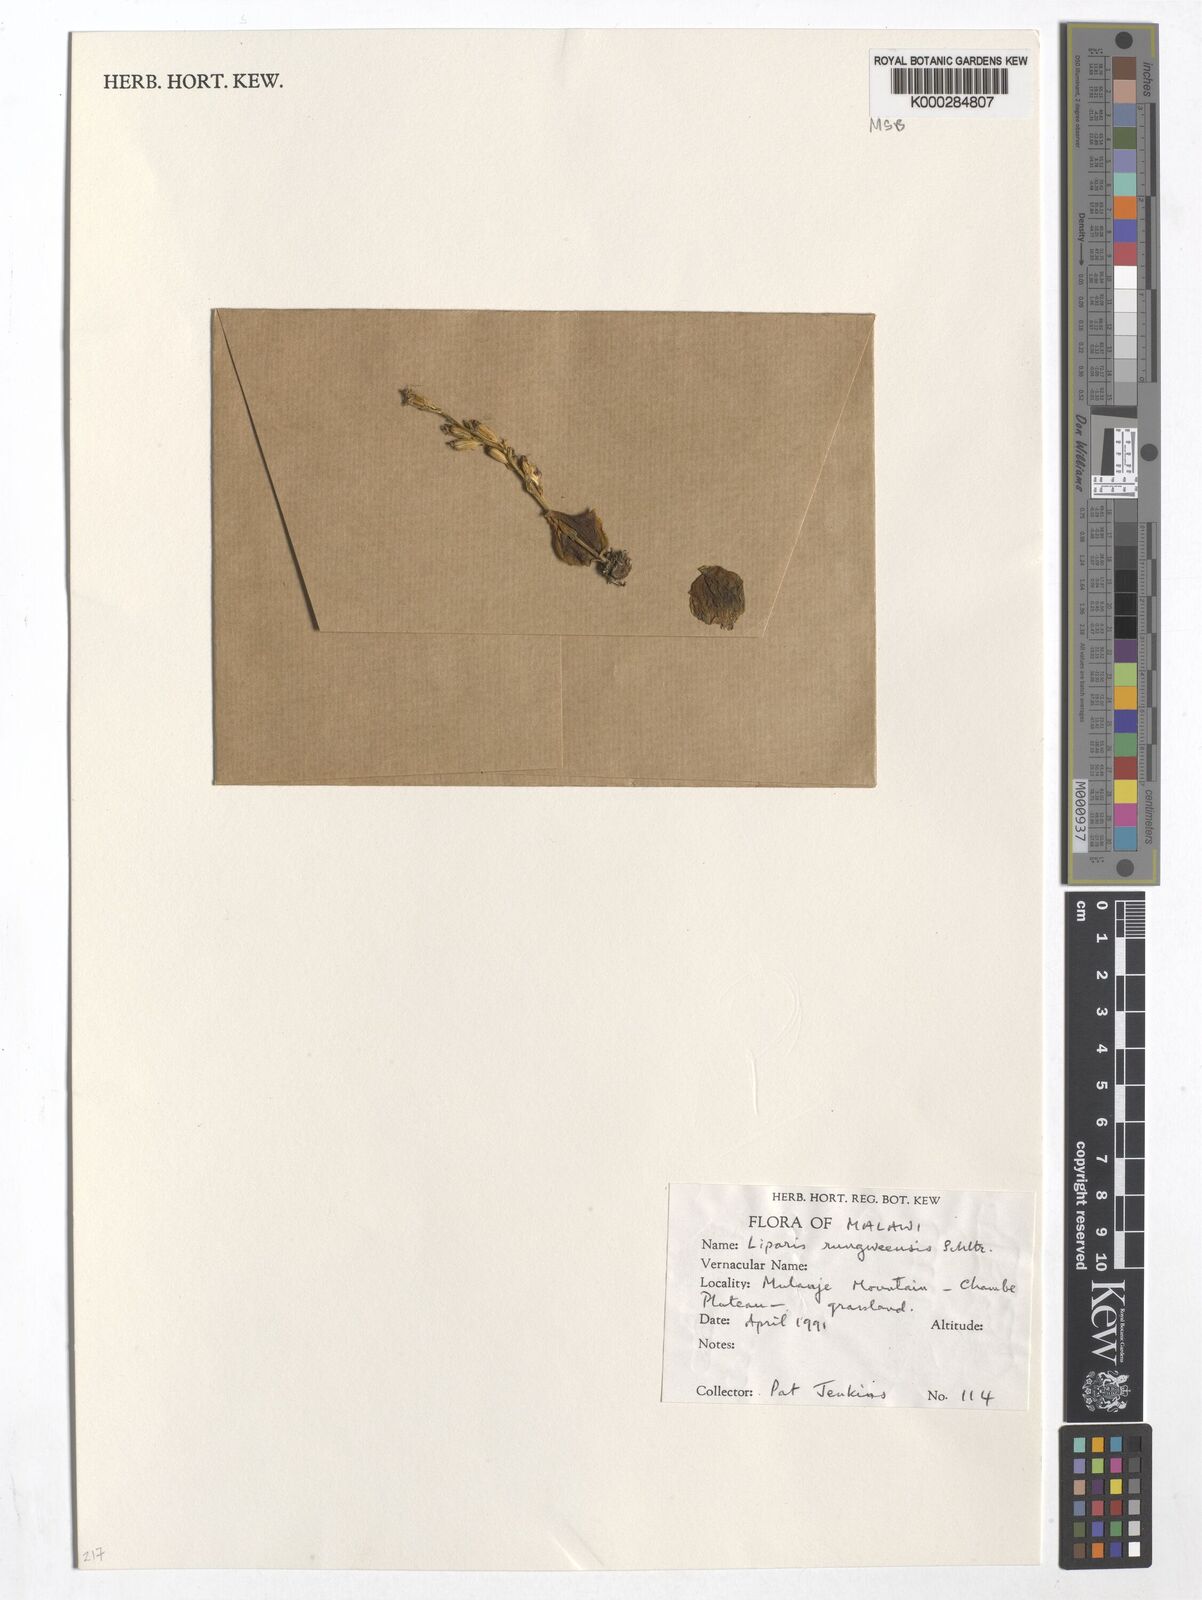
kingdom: Plantae
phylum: Tracheophyta
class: Liliopsida
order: Asparagales
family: Orchidaceae
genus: Liparis
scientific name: Liparis rungweensis
